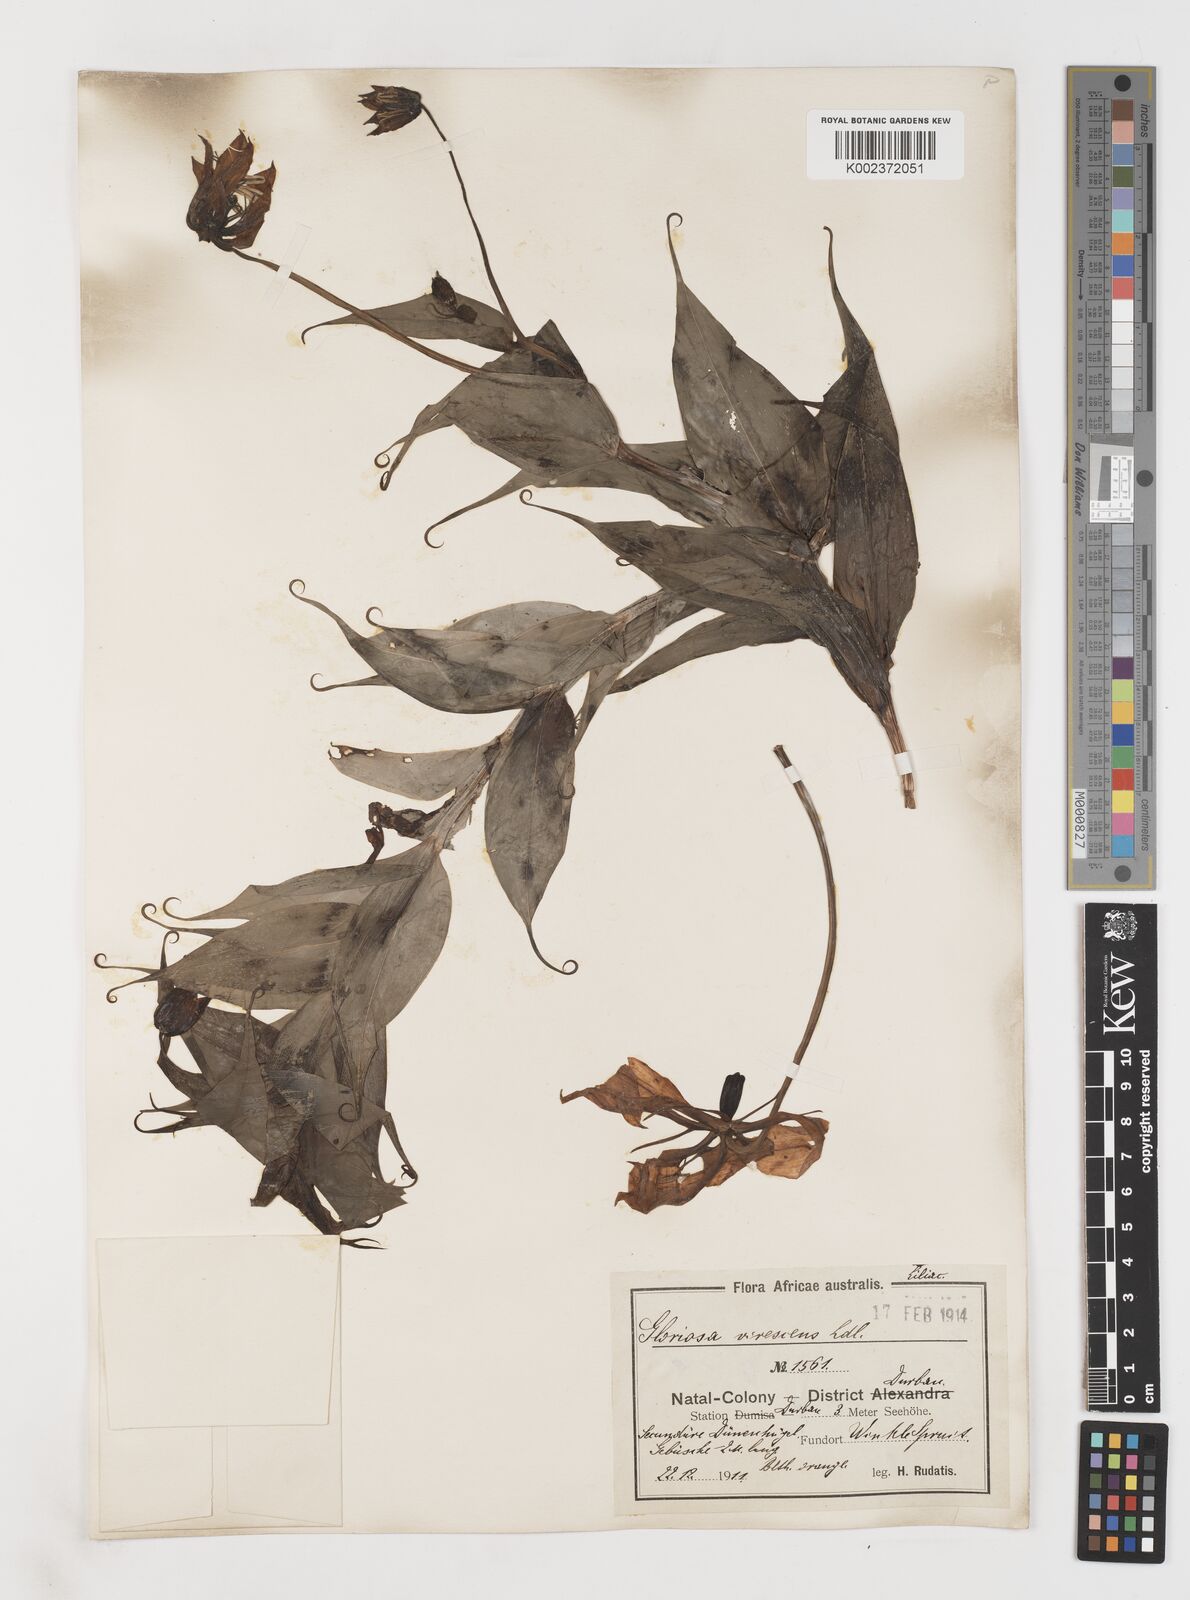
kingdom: Plantae
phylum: Tracheophyta
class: Liliopsida
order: Liliales
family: Colchicaceae
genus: Gloriosa
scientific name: Gloriosa simplex
